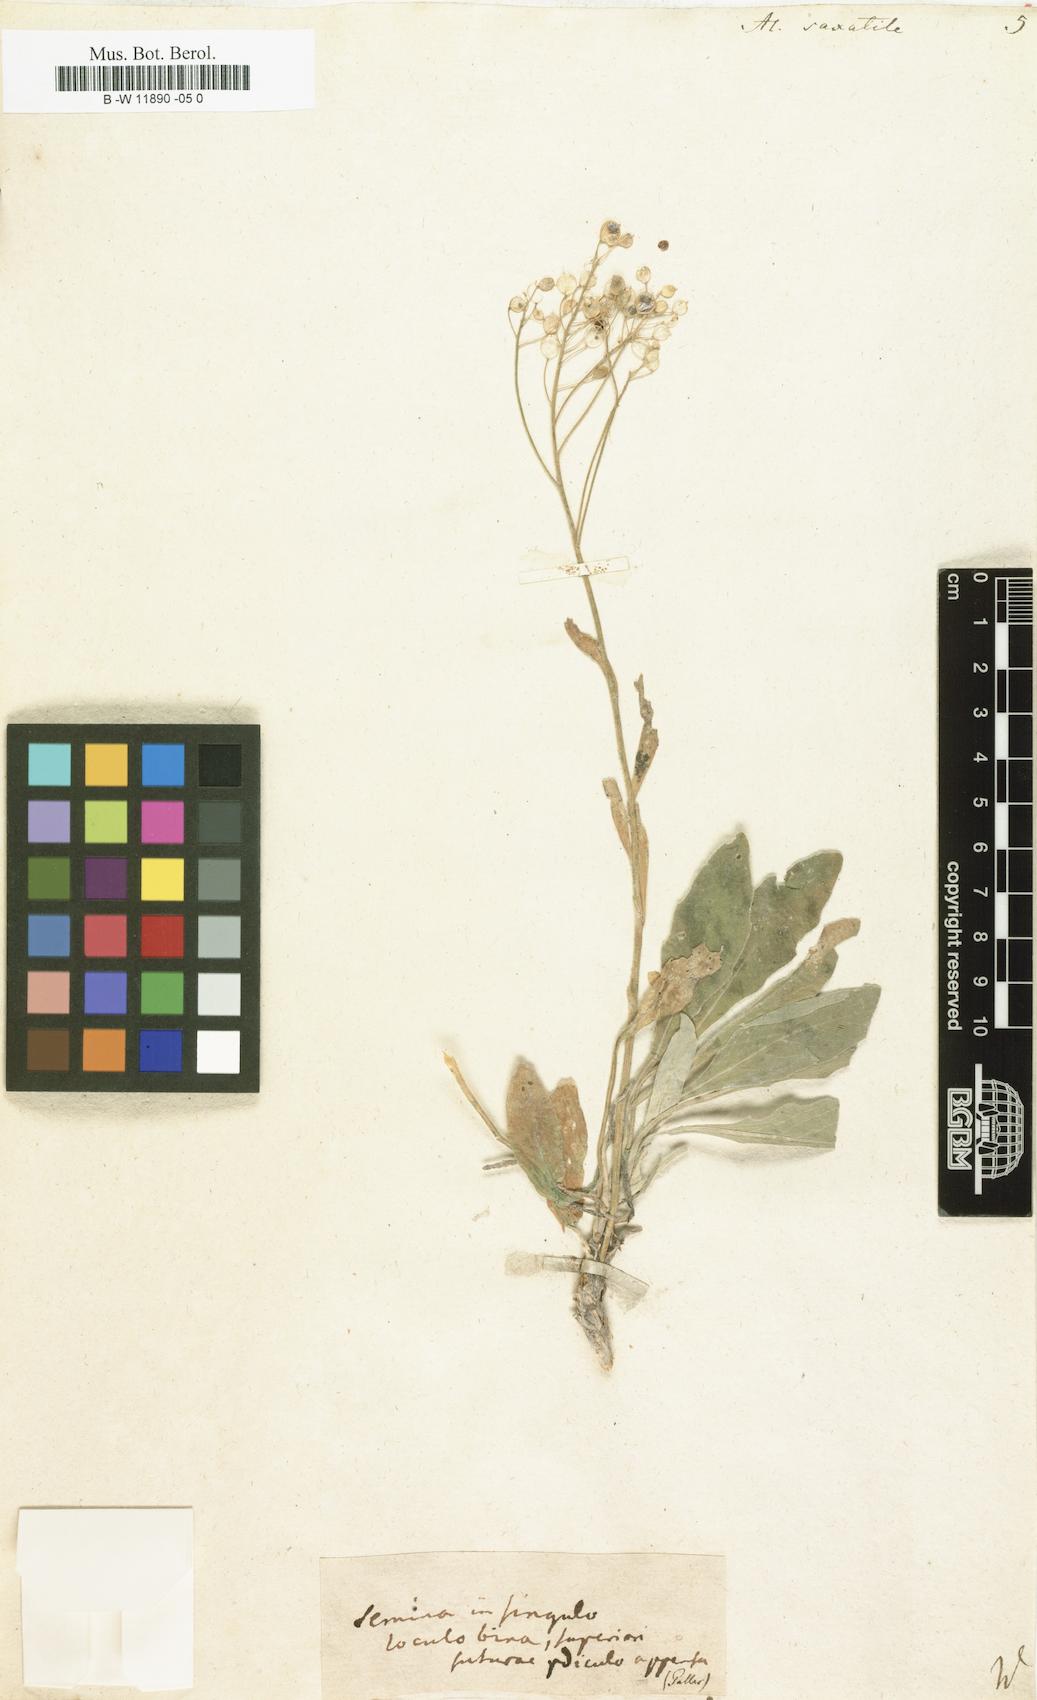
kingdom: Plantae
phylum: Tracheophyta
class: Magnoliopsida
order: Brassicales
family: Brassicaceae
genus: Aurinia
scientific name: Aurinia saxatilis
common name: Golden-tuft alyssum
